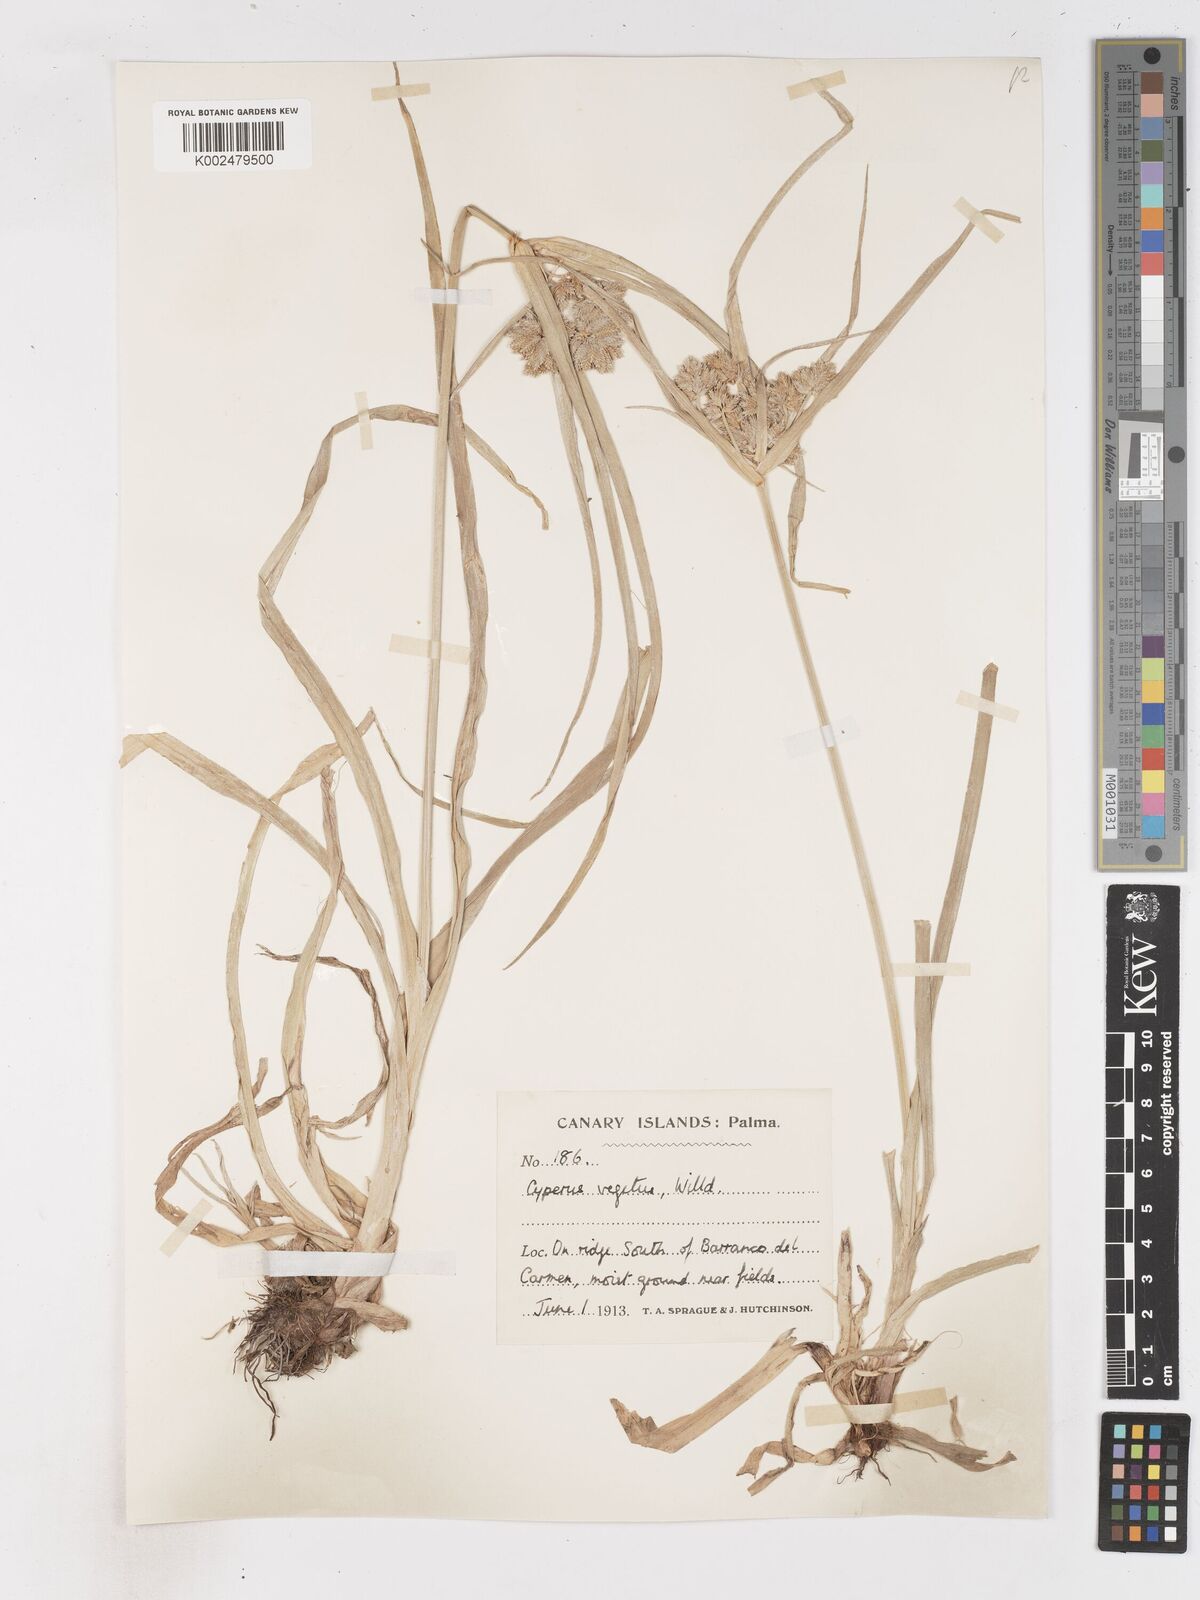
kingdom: Plantae
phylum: Tracheophyta
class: Liliopsida
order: Poales
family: Cyperaceae
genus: Cyperus
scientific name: Cyperus eragrostis
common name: Tall flatsedge
